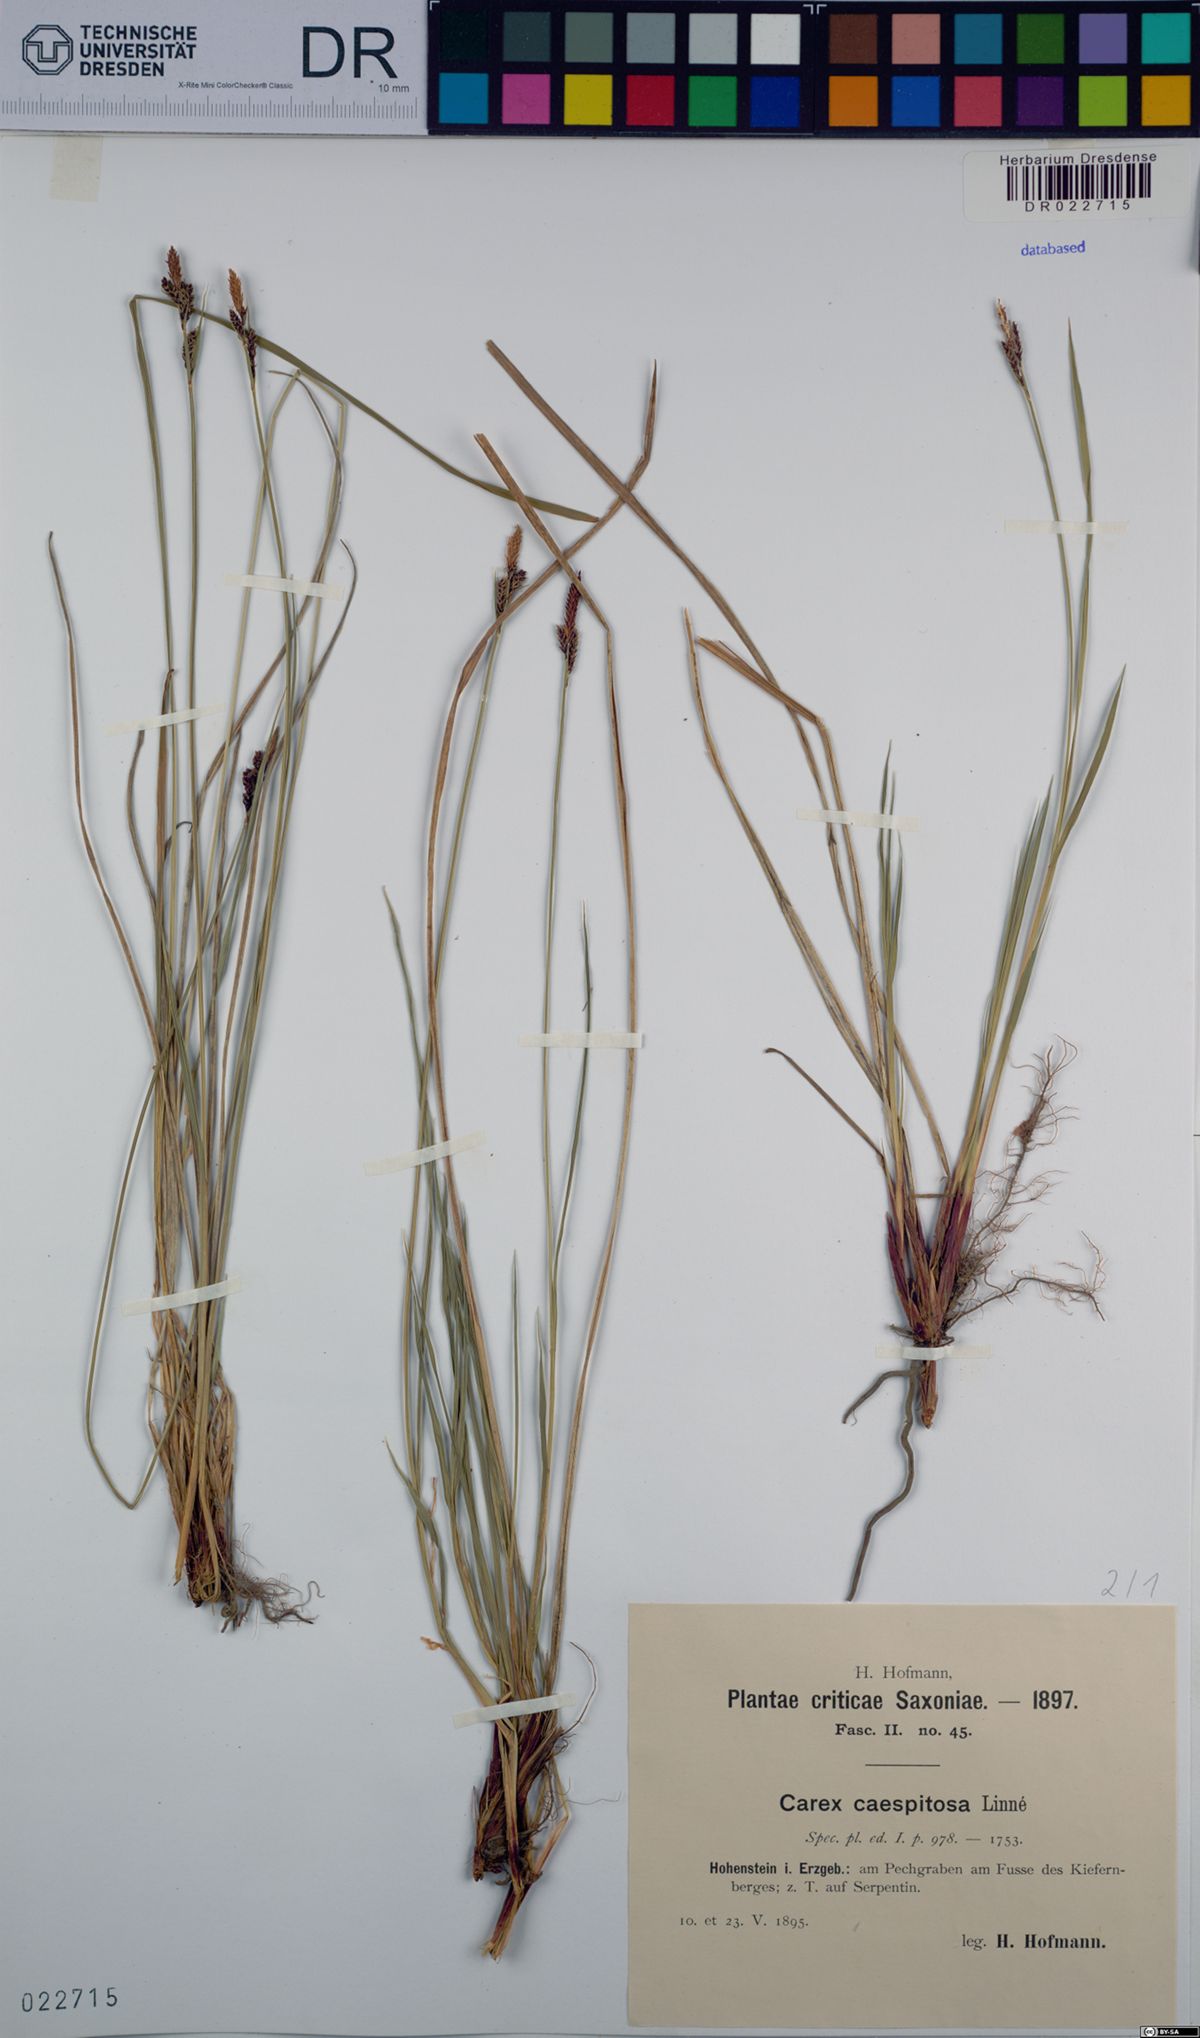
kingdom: Plantae
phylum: Tracheophyta
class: Liliopsida
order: Poales
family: Cyperaceae
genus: Carex
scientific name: Carex cespitosa
